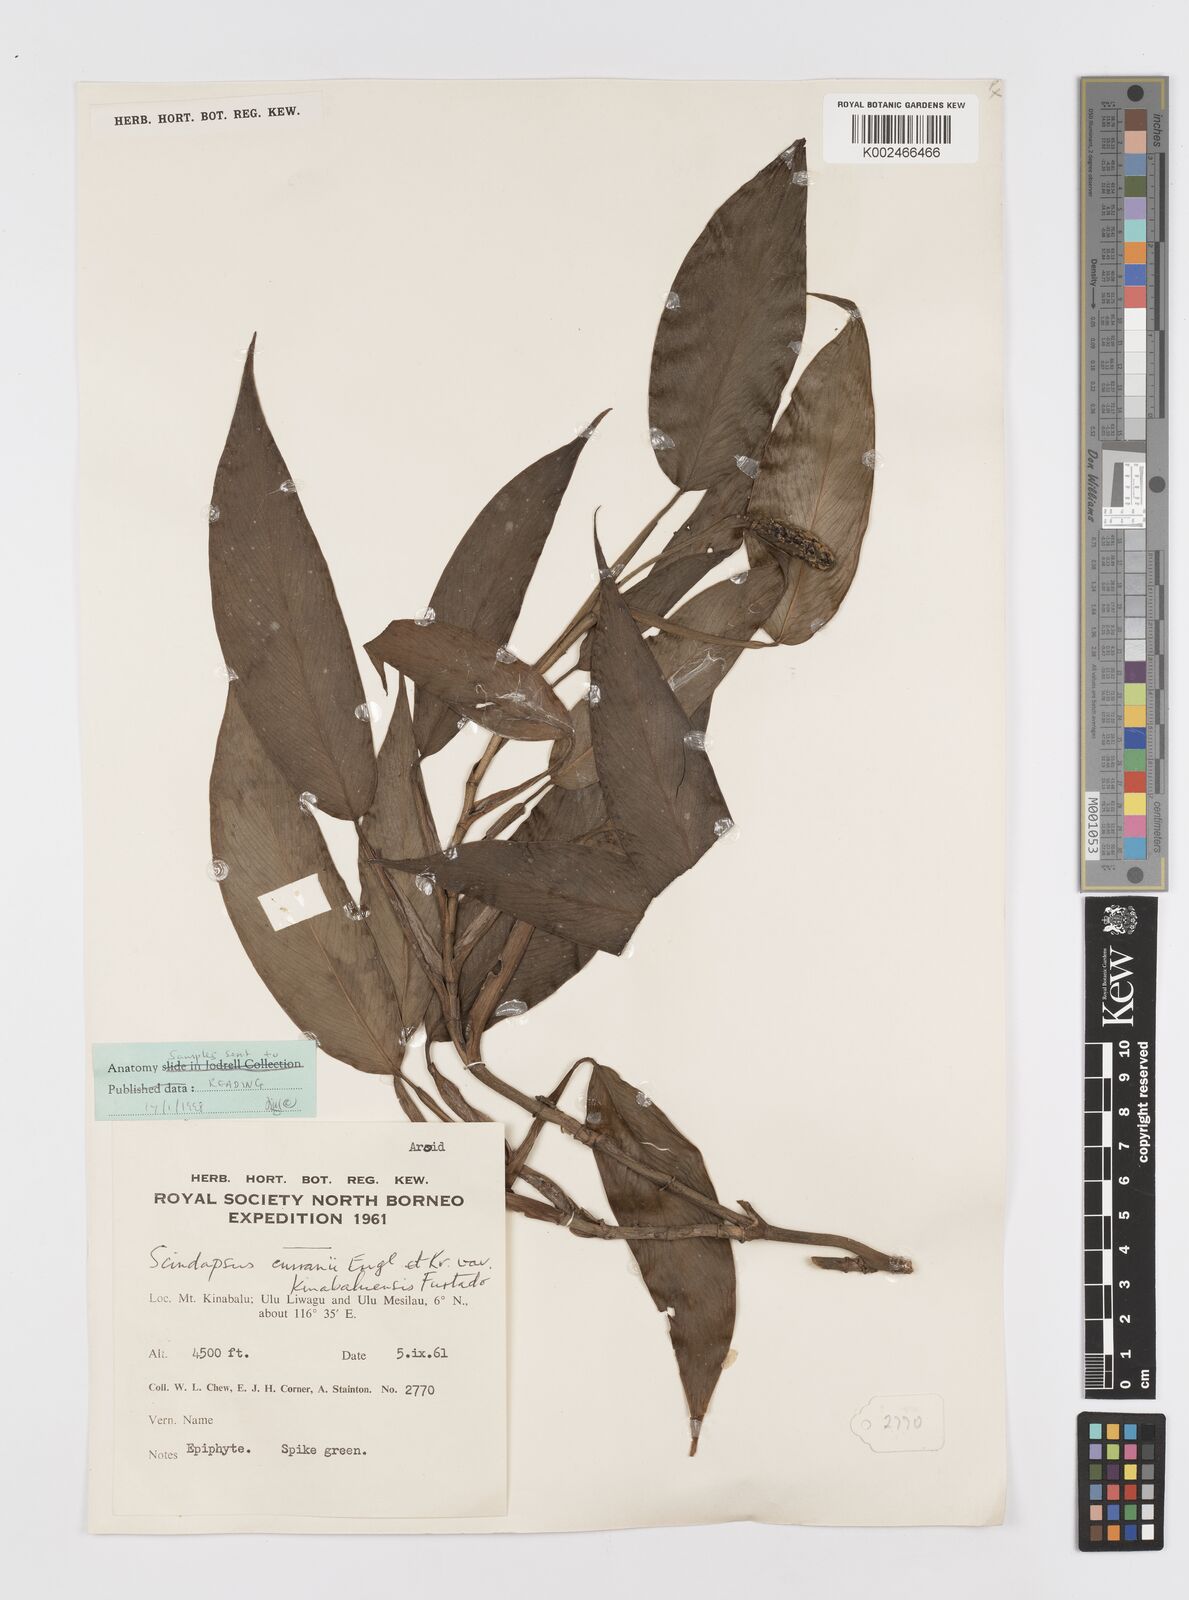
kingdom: Plantae
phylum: Tracheophyta
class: Liliopsida
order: Alismatales
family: Araceae
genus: Scindapsus
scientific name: Scindapsus curranii
